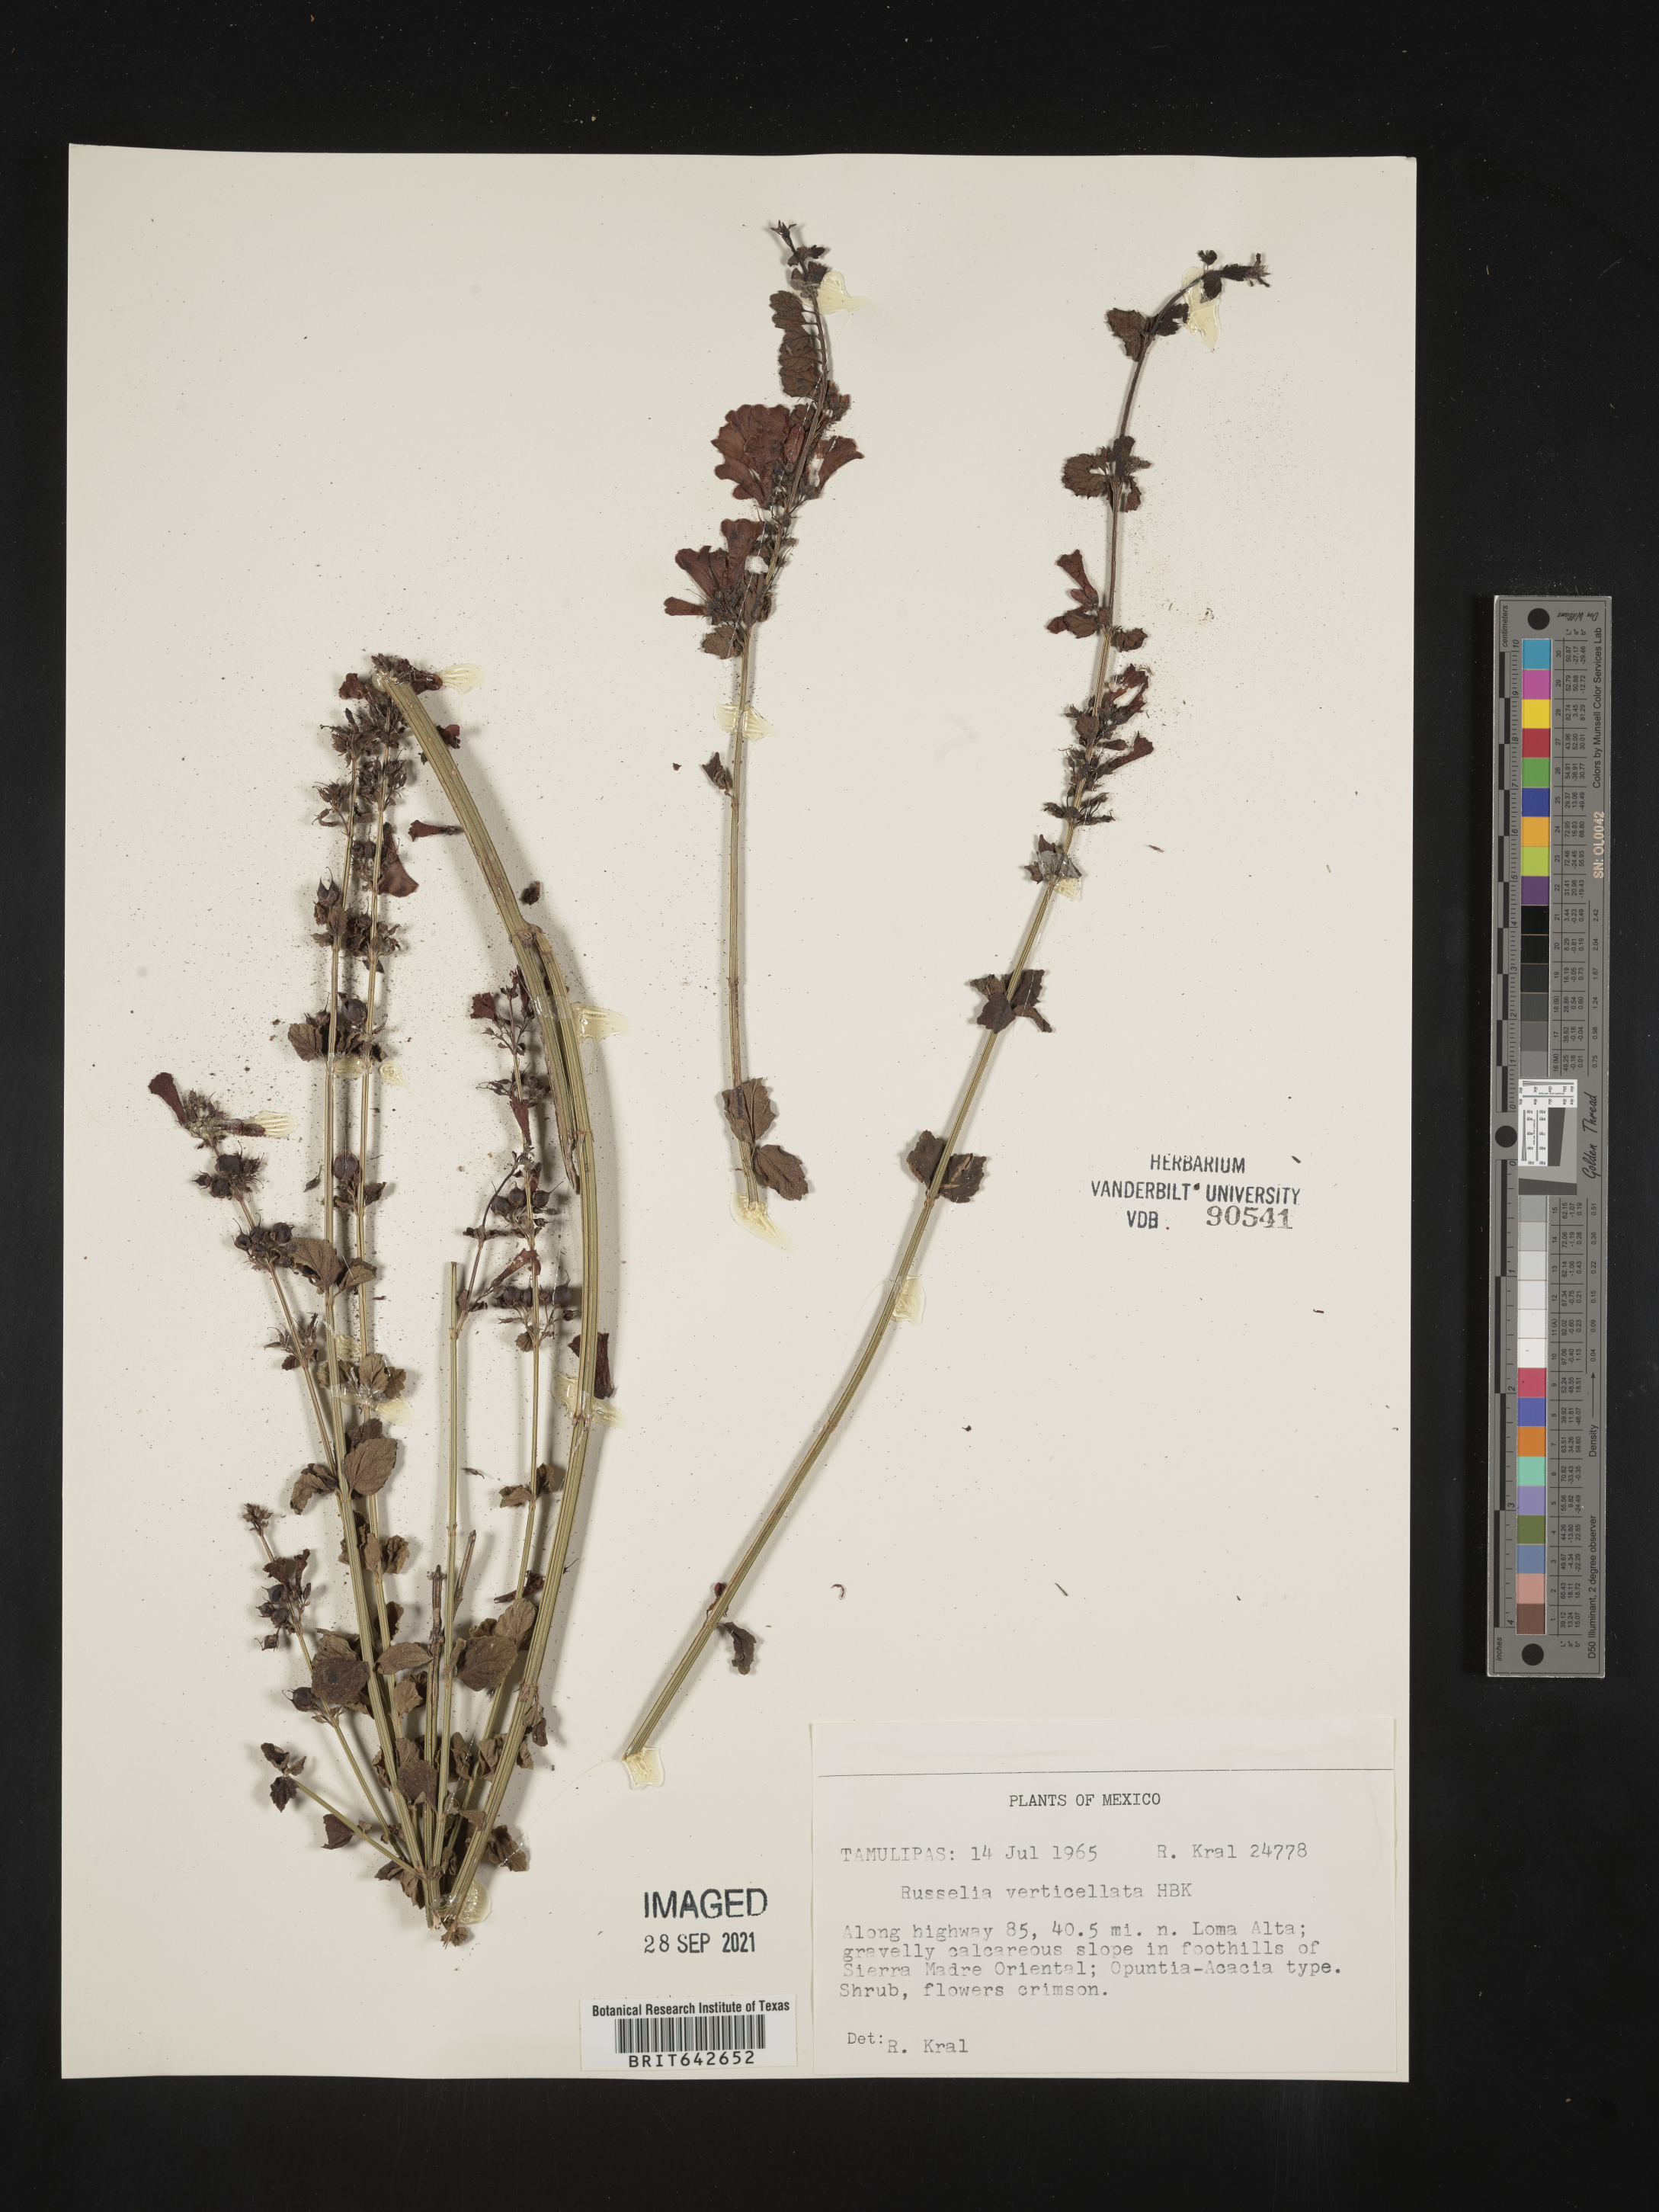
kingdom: Plantae
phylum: Tracheophyta
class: Magnoliopsida
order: Lamiales
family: Plantaginaceae
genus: Russelia
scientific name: Russelia
